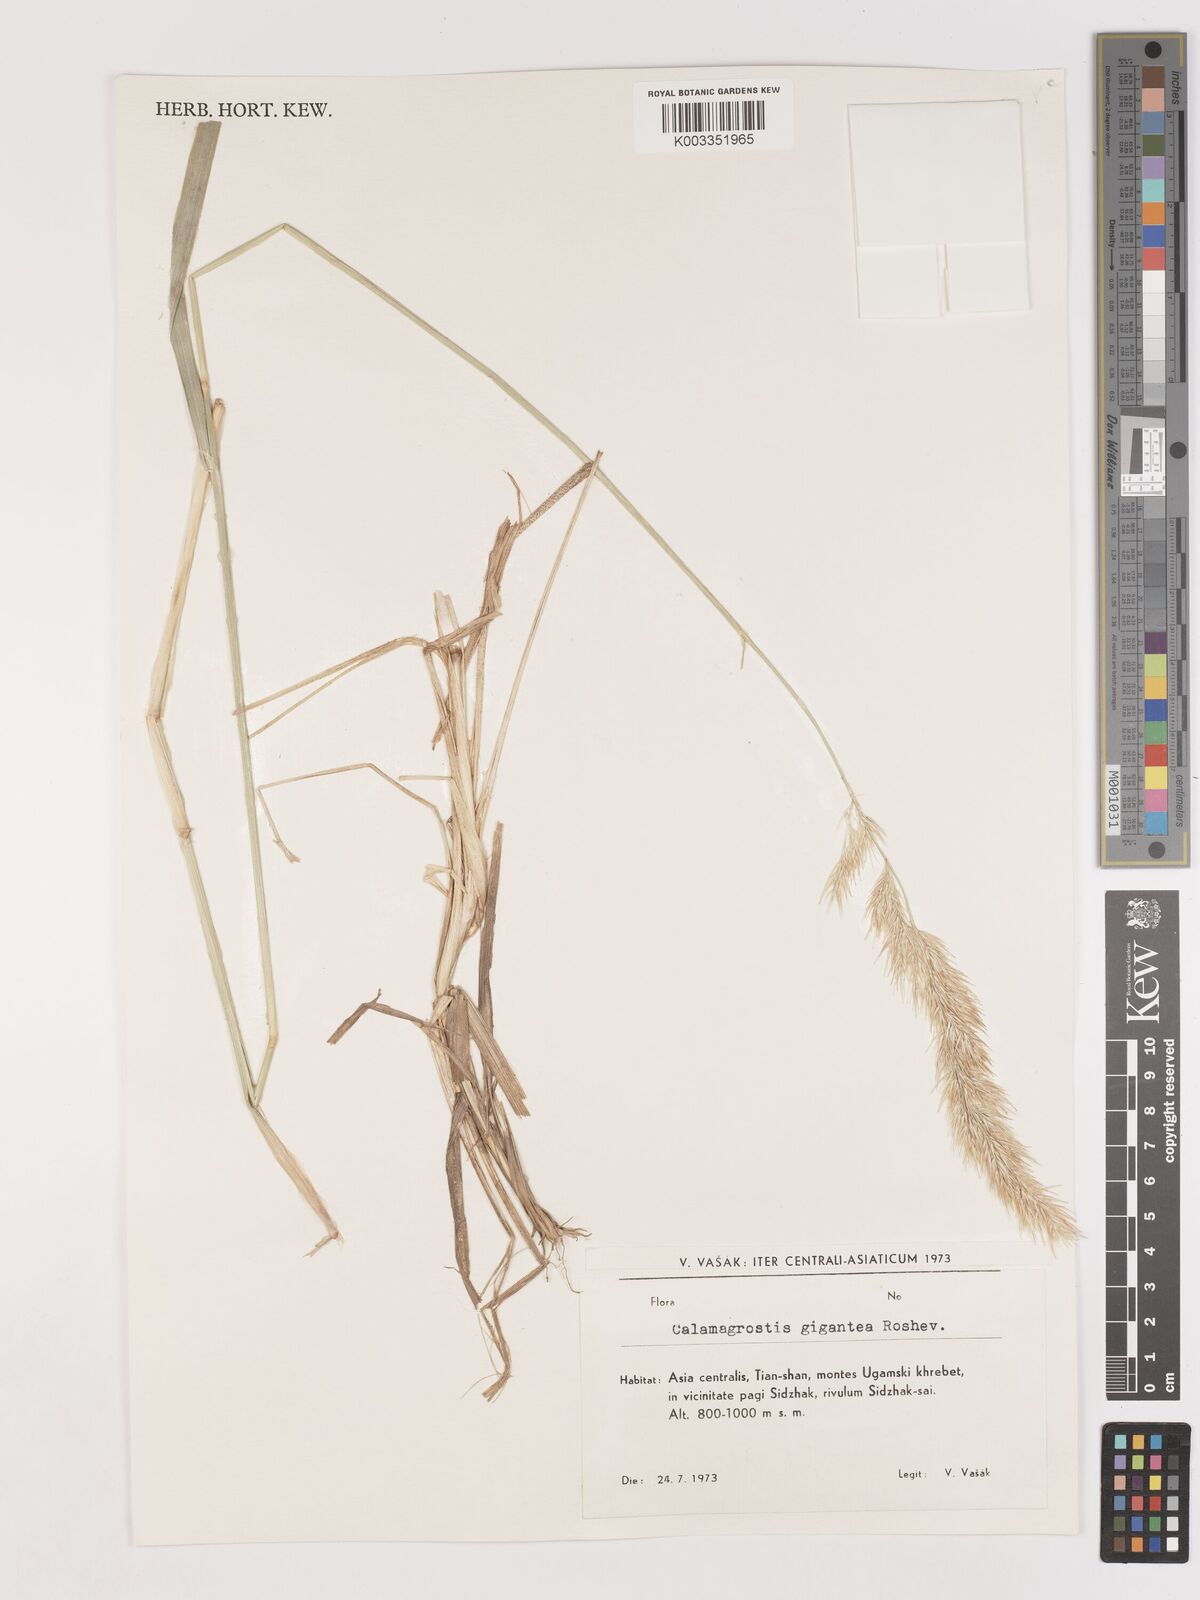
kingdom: Plantae
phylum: Tracheophyta
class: Liliopsida
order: Poales
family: Poaceae
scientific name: Poaceae
